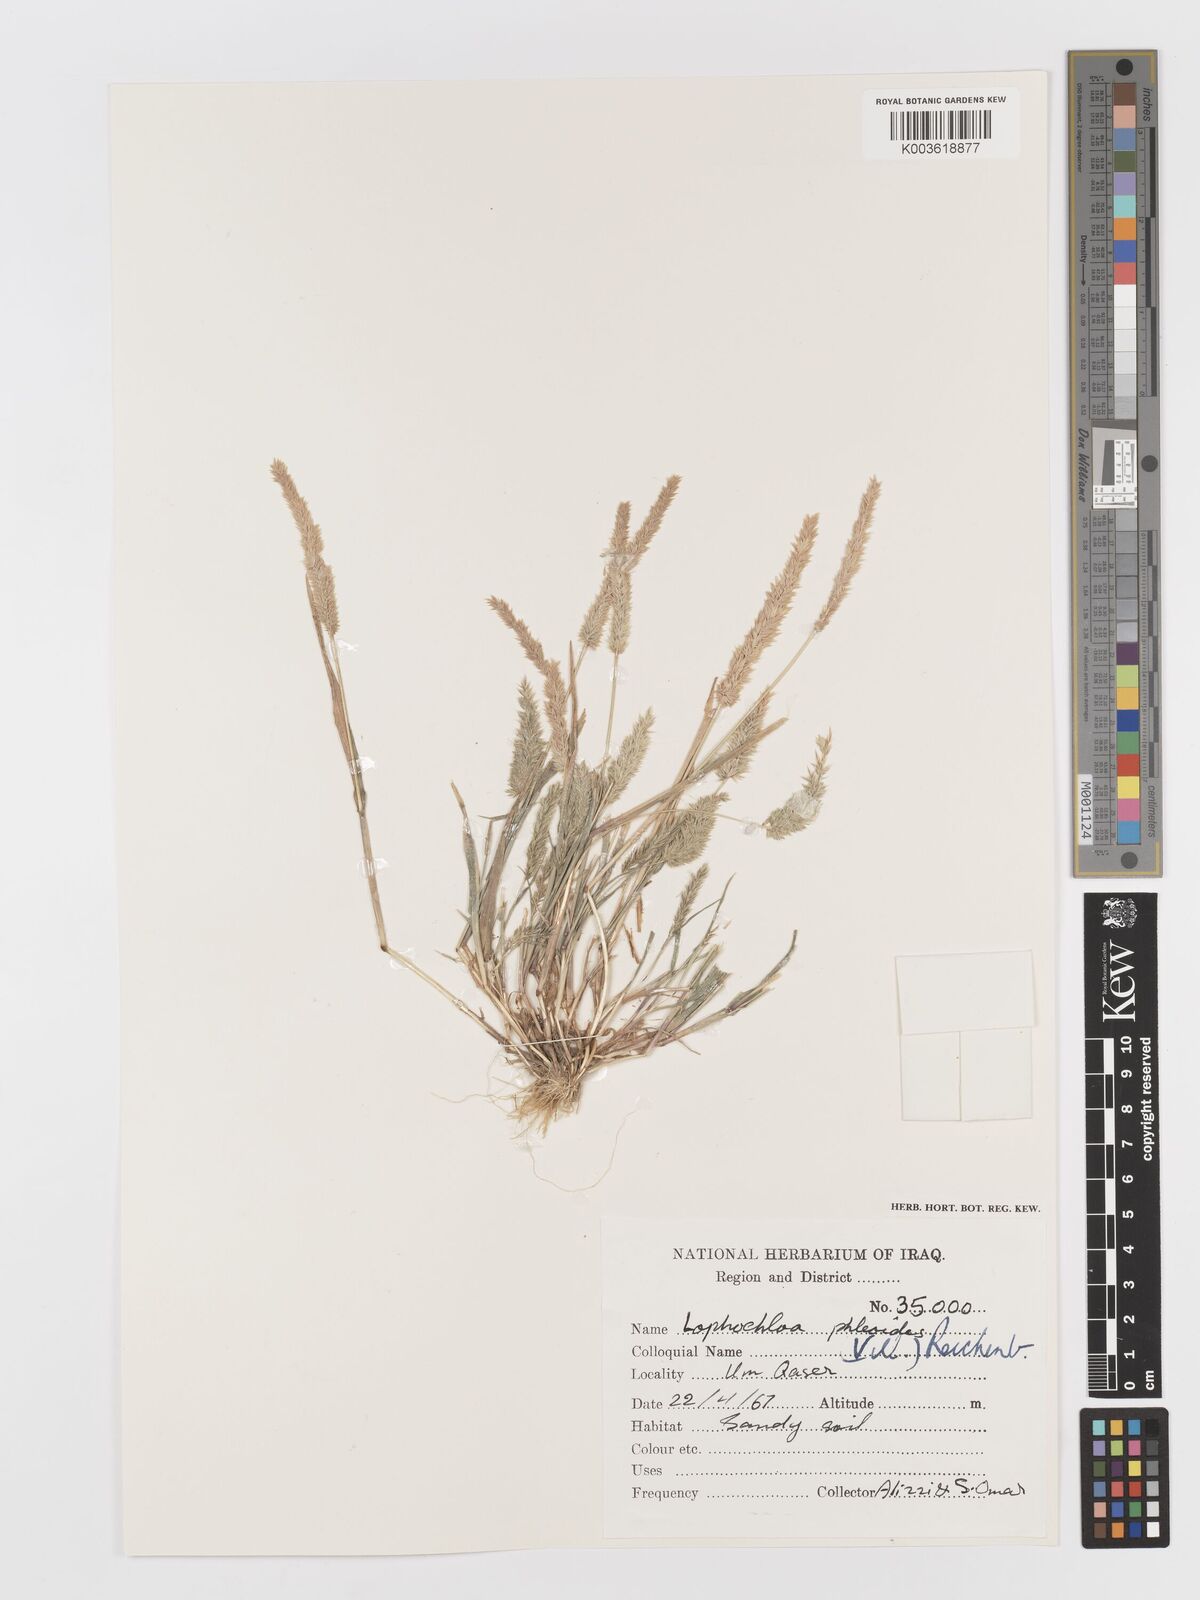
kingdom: Plantae
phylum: Tracheophyta
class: Liliopsida
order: Poales
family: Poaceae
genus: Rostraria
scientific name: Rostraria cristata
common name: Mediterranean hair-grass
